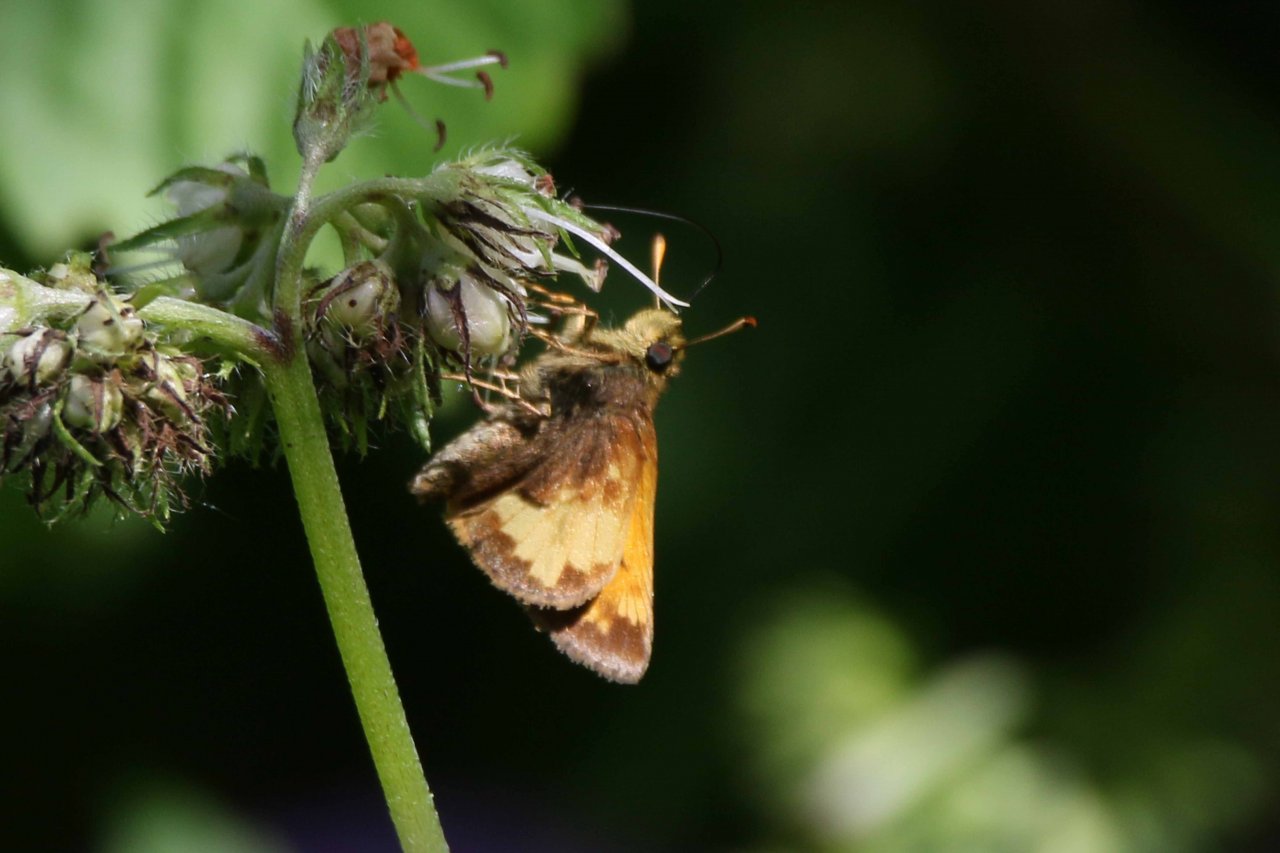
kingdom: Animalia
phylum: Arthropoda
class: Insecta
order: Lepidoptera
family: Hesperiidae
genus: Lon
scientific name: Lon hobomok
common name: Hobomok Skipper
